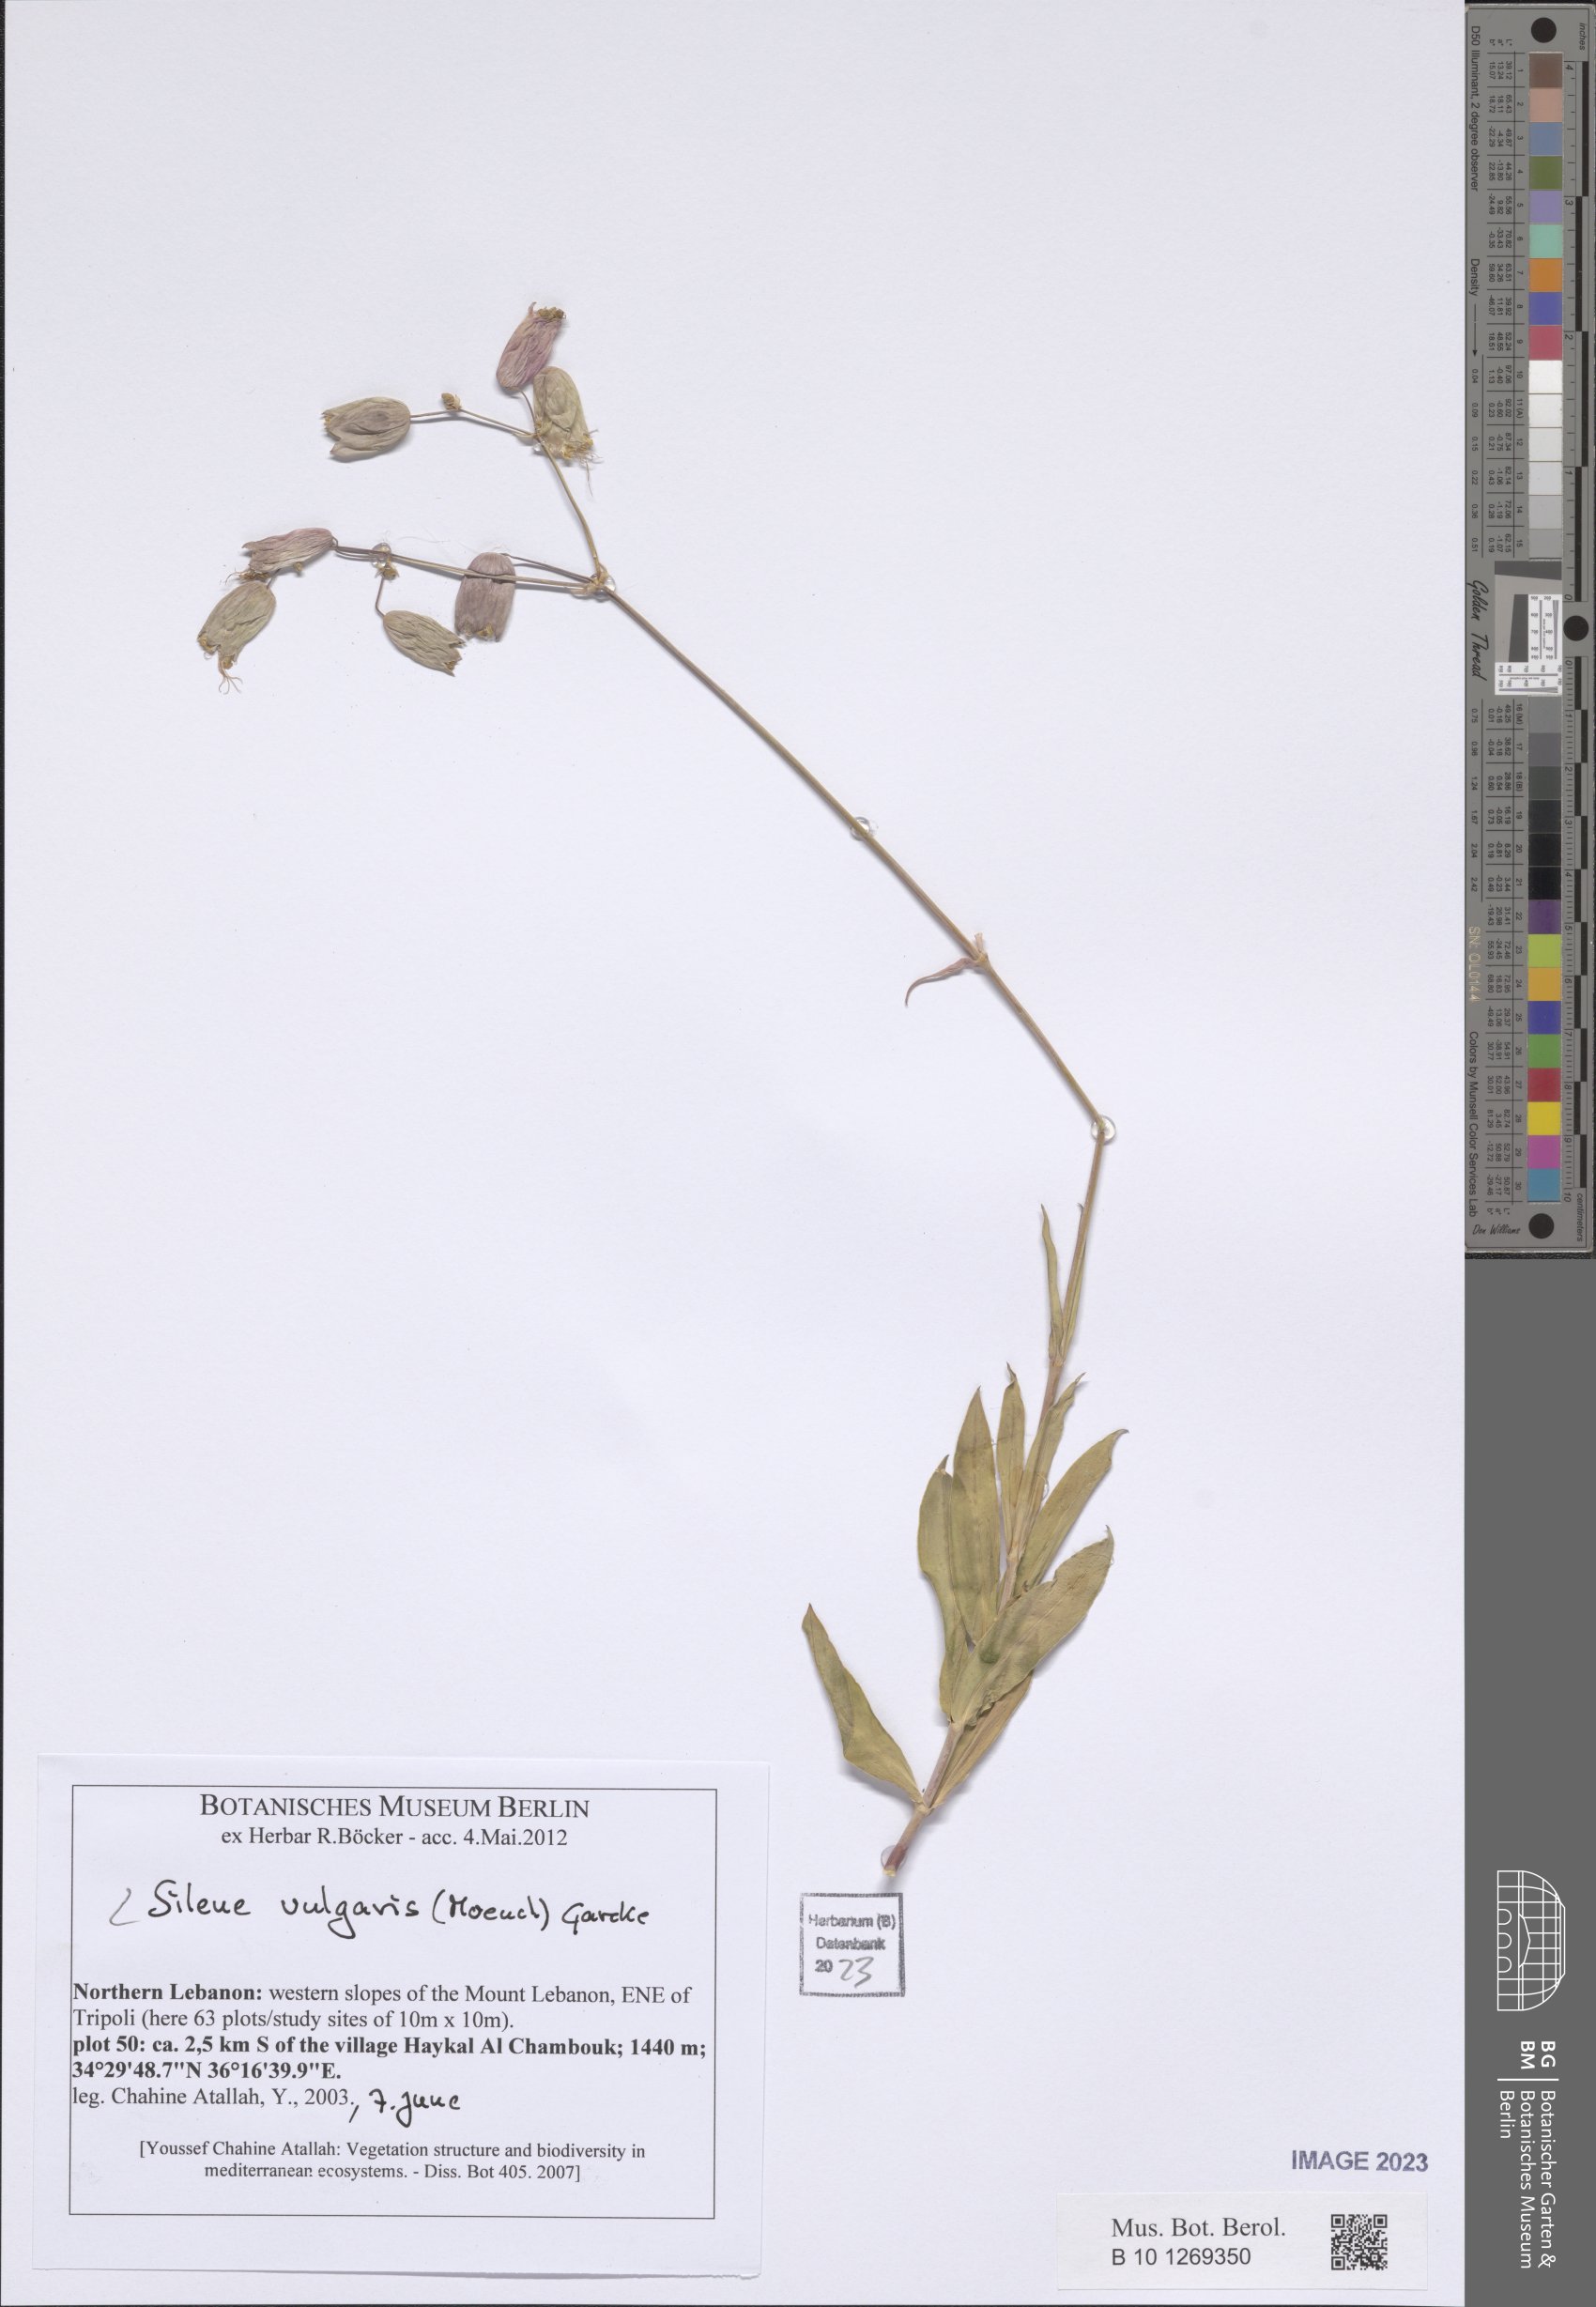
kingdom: Plantae
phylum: Tracheophyta
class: Magnoliopsida
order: Caryophyllales
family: Caryophyllaceae
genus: Silene
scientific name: Silene vulgaris
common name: Bladder campion
